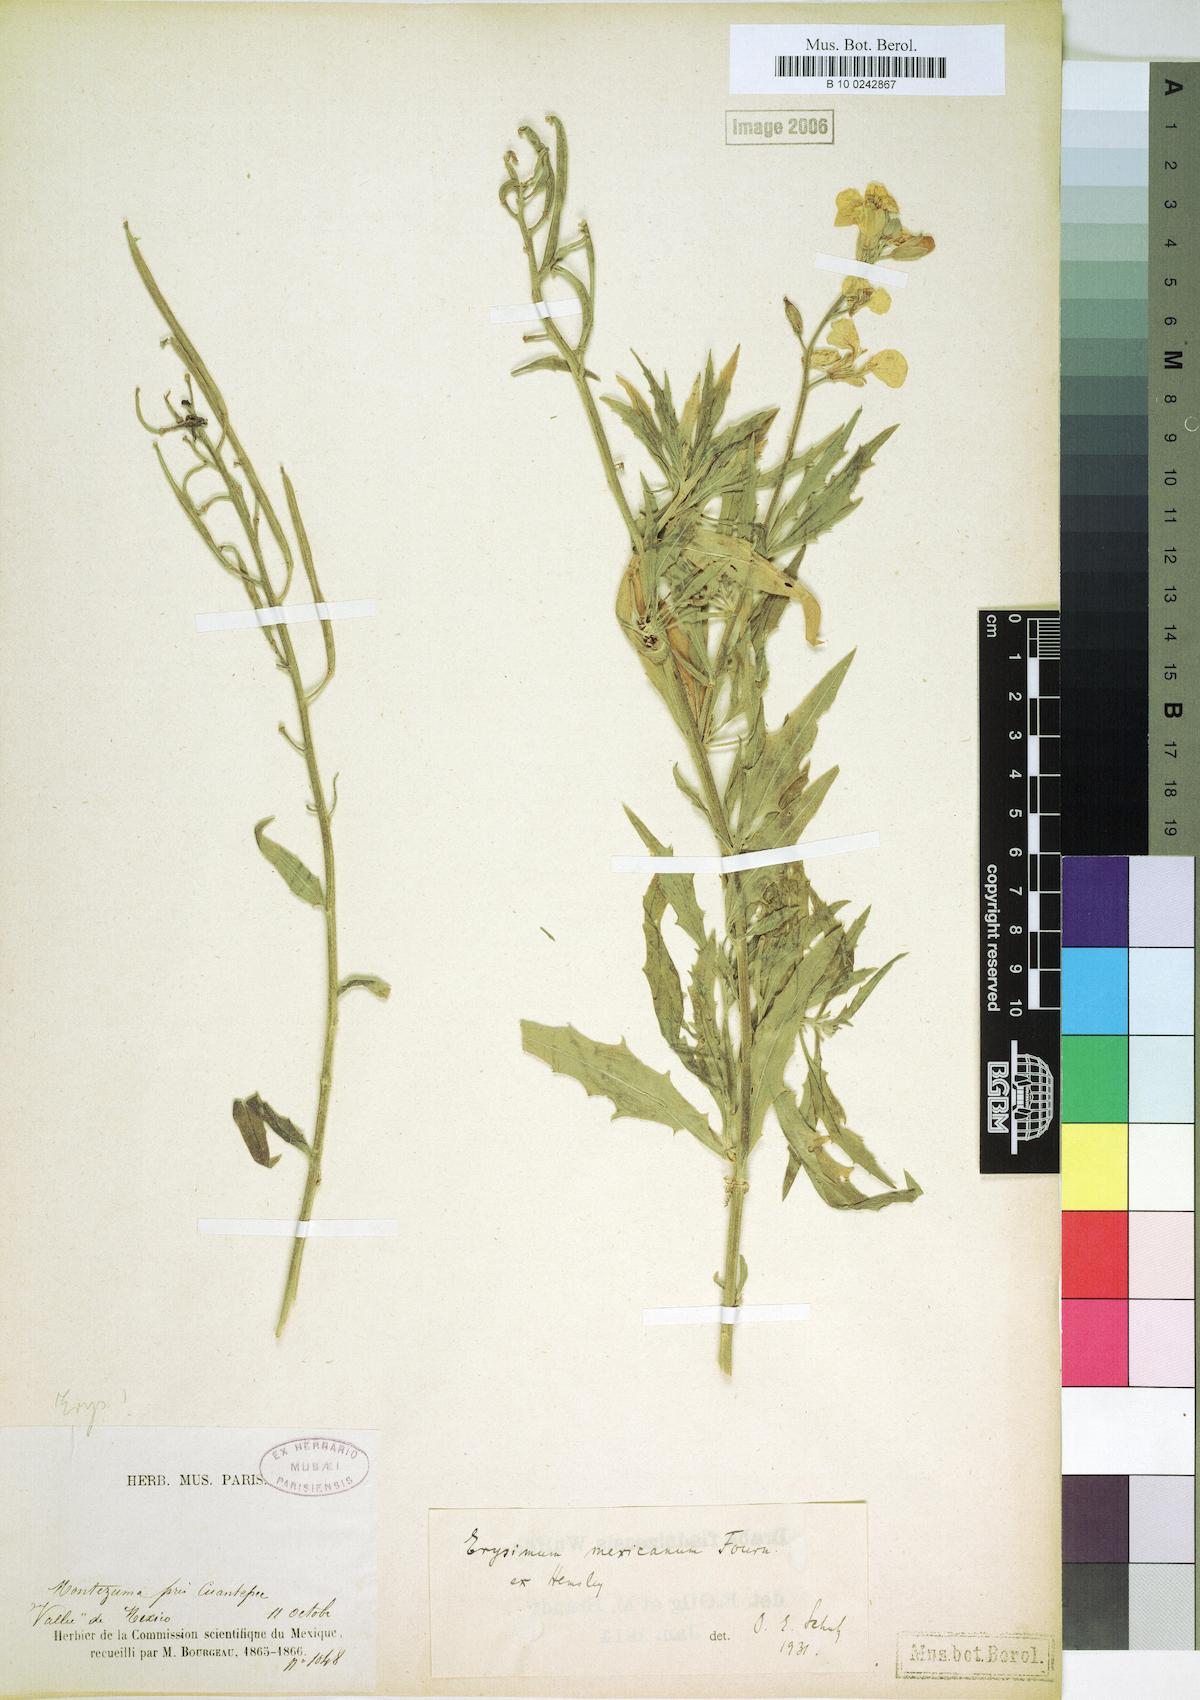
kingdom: Plantae
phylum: Tracheophyta
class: Magnoliopsida
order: Brassicales
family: Brassicaceae
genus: Erysimum
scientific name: Erysimum capitatum
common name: Western wallflower
